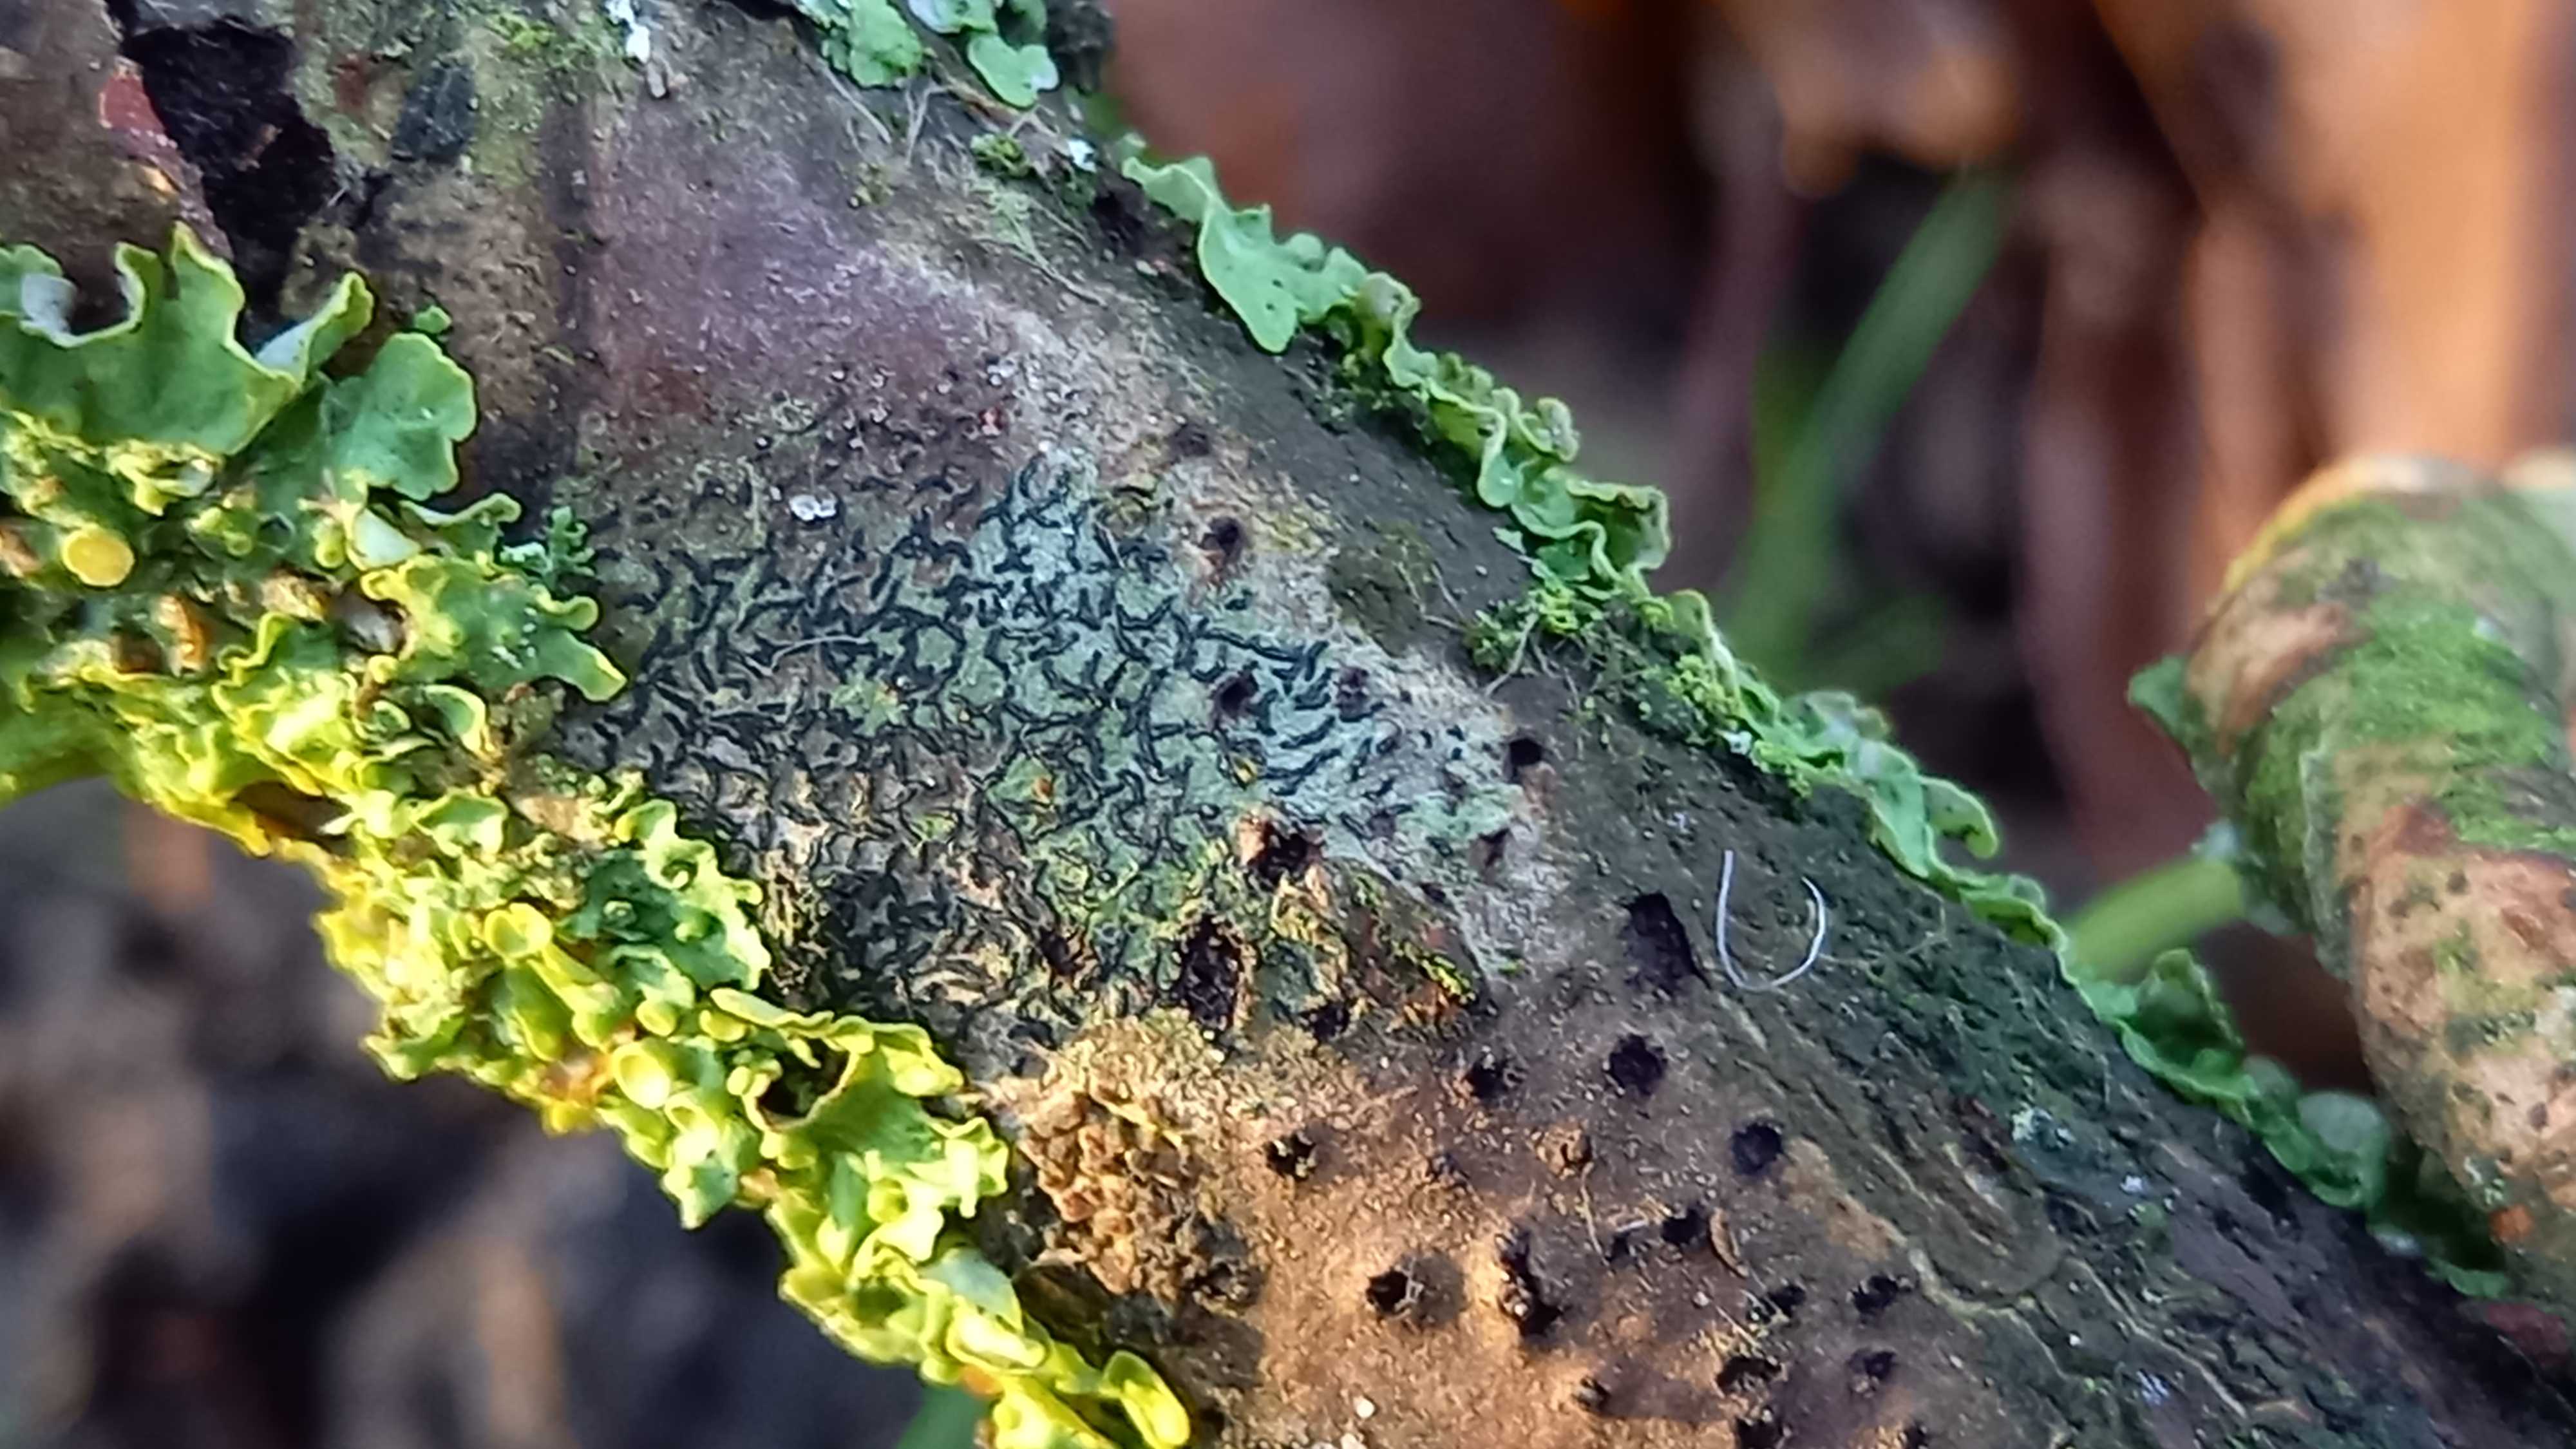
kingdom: Fungi
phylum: Ascomycota
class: Lecanoromycetes
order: Ostropales
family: Graphidaceae
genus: Graphis
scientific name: Graphis scripta
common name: almindelig skriftlav
